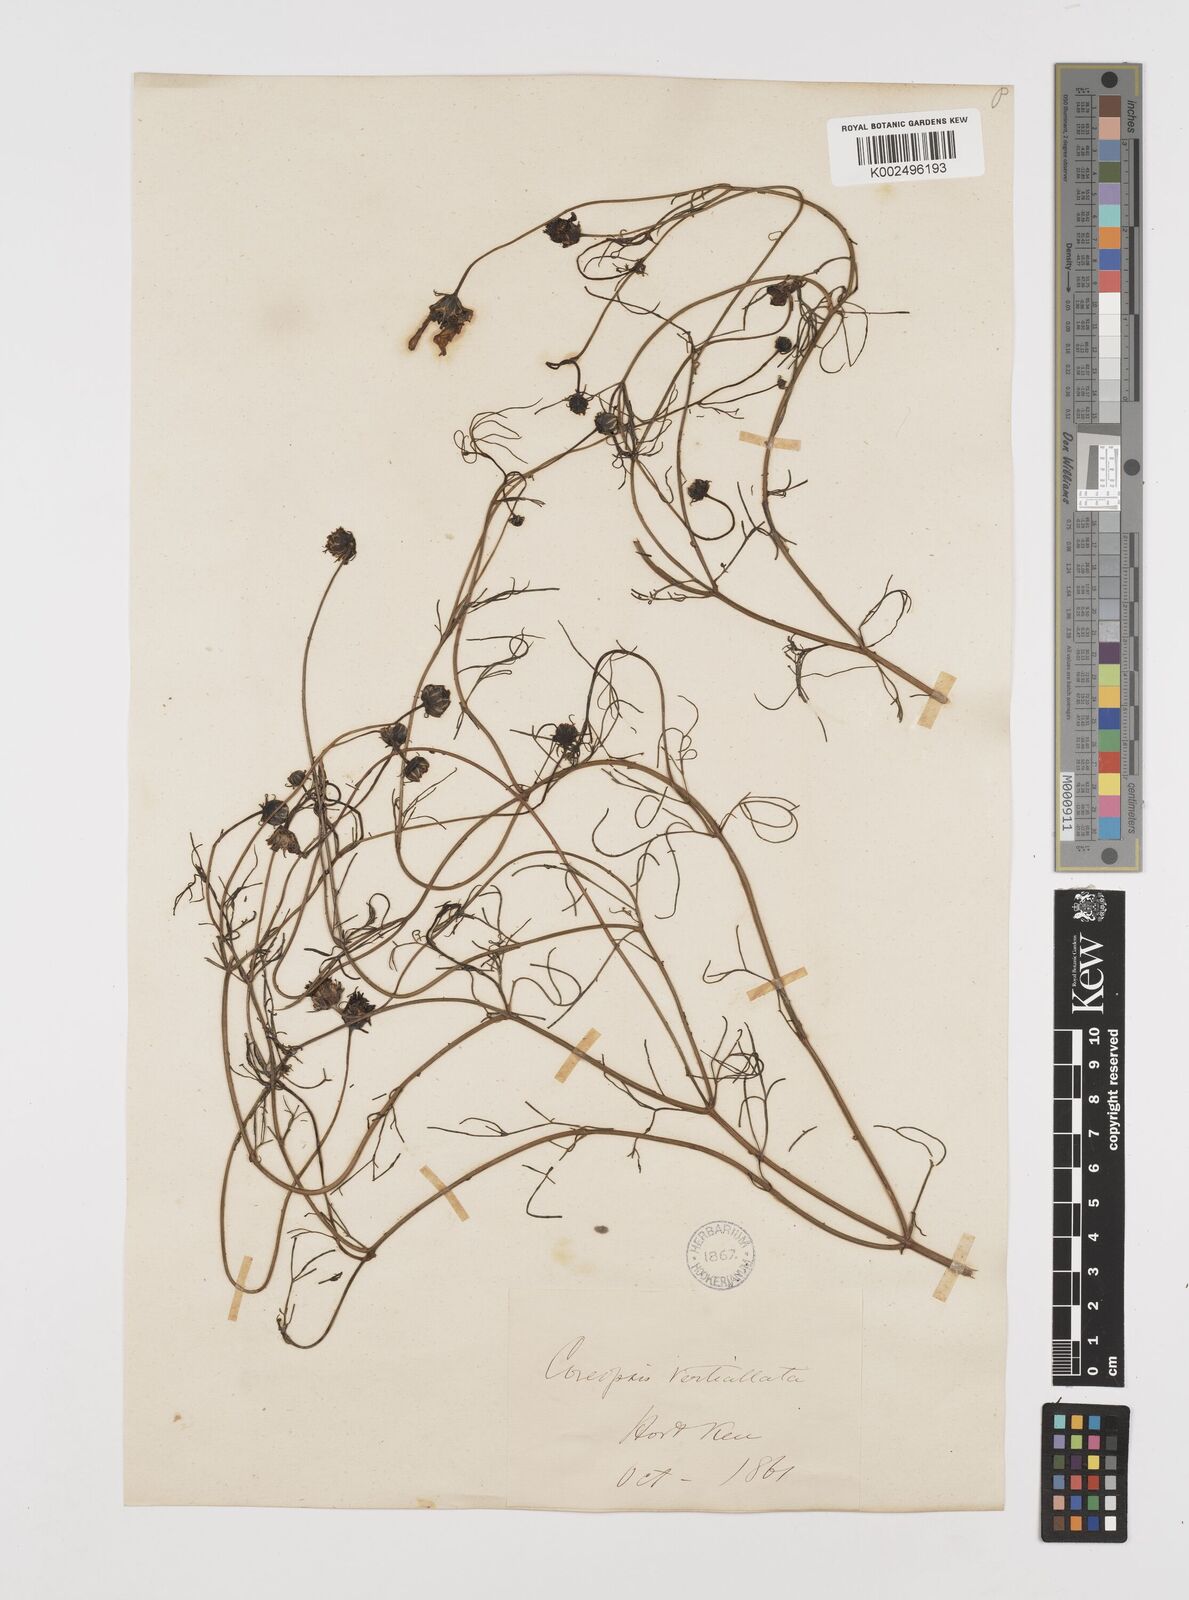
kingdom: Plantae
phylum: Tracheophyta
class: Magnoliopsida
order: Asterales
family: Asteraceae
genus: Coreopsis
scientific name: Coreopsis verticillata
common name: Whorled tickseed
